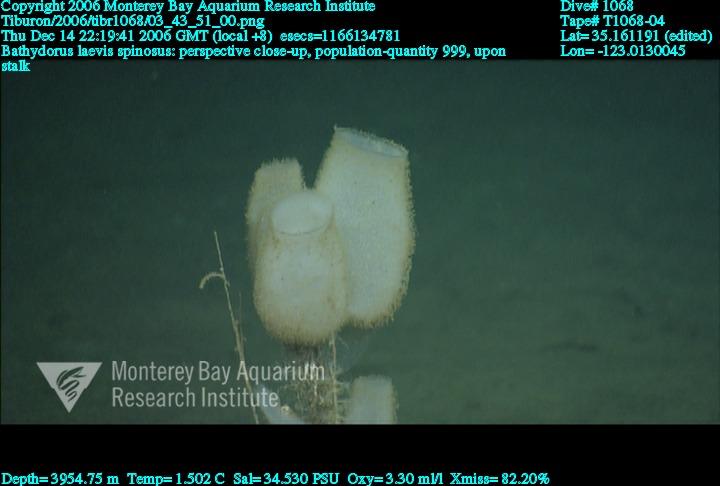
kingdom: Animalia
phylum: Porifera
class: Hexactinellida
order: Lyssacinosida
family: Rossellidae
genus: Bathydorus
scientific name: Bathydorus spinosus
